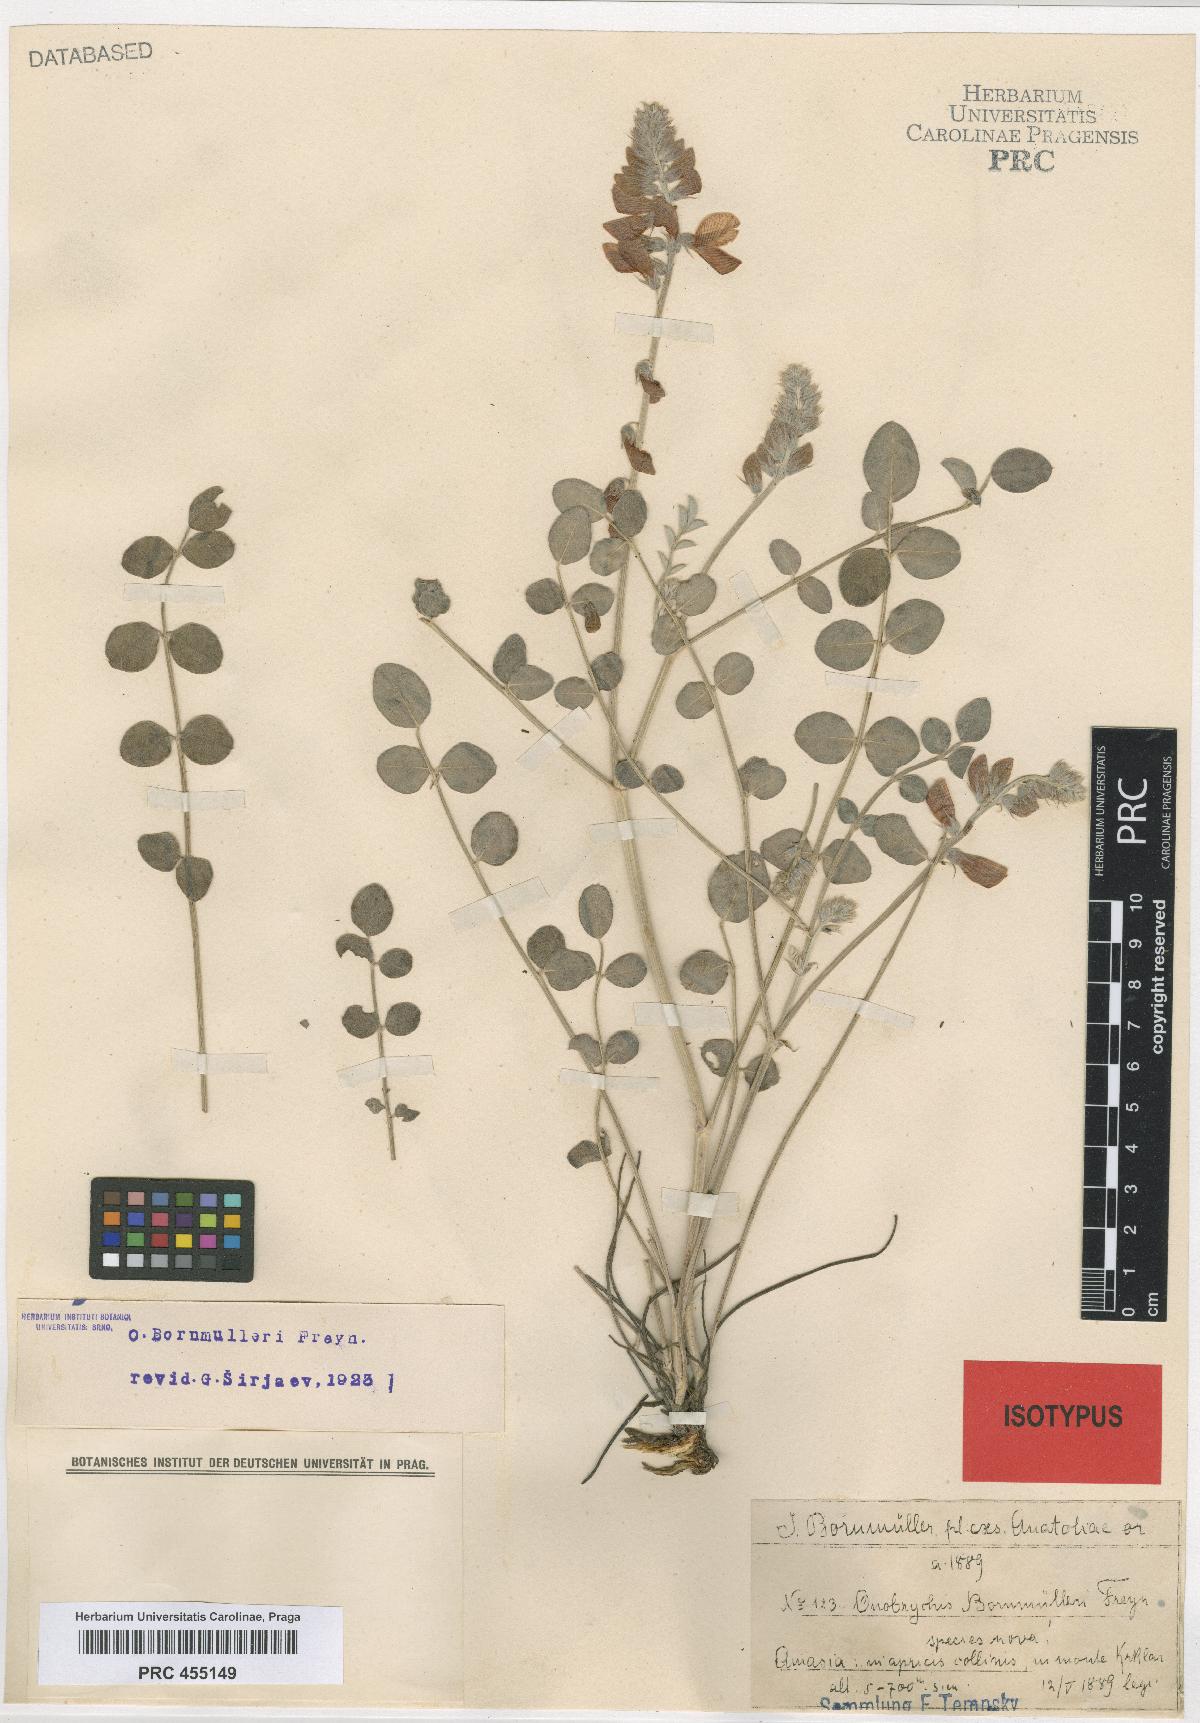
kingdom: Plantae
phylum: Tracheophyta
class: Magnoliopsida
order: Fabales
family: Fabaceae
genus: Onobrychis
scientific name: Onobrychis bornmuelleri
